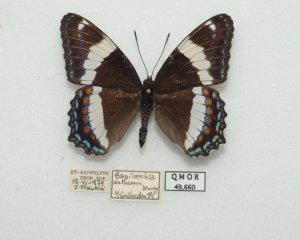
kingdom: Animalia
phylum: Arthropoda
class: Insecta
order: Lepidoptera
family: Nymphalidae
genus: Limenitis
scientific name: Limenitis arthemis
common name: Red-spotted Admiral
